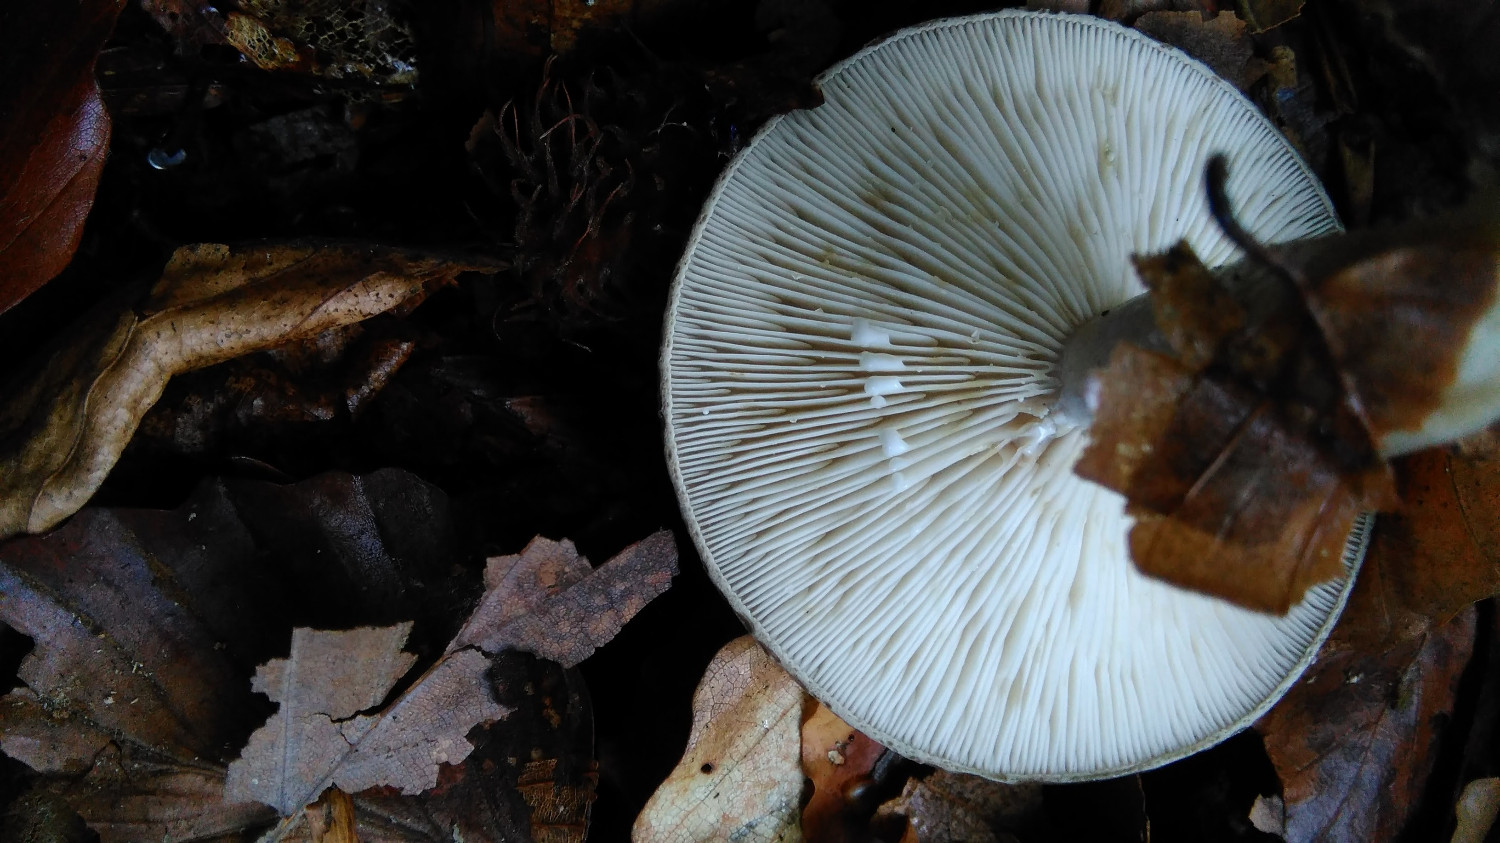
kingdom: Fungi
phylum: Basidiomycota
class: Agaricomycetes
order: Russulales
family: Russulaceae
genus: Lactarius
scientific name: Lactarius blennius
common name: dråbeplettet mælkehat
